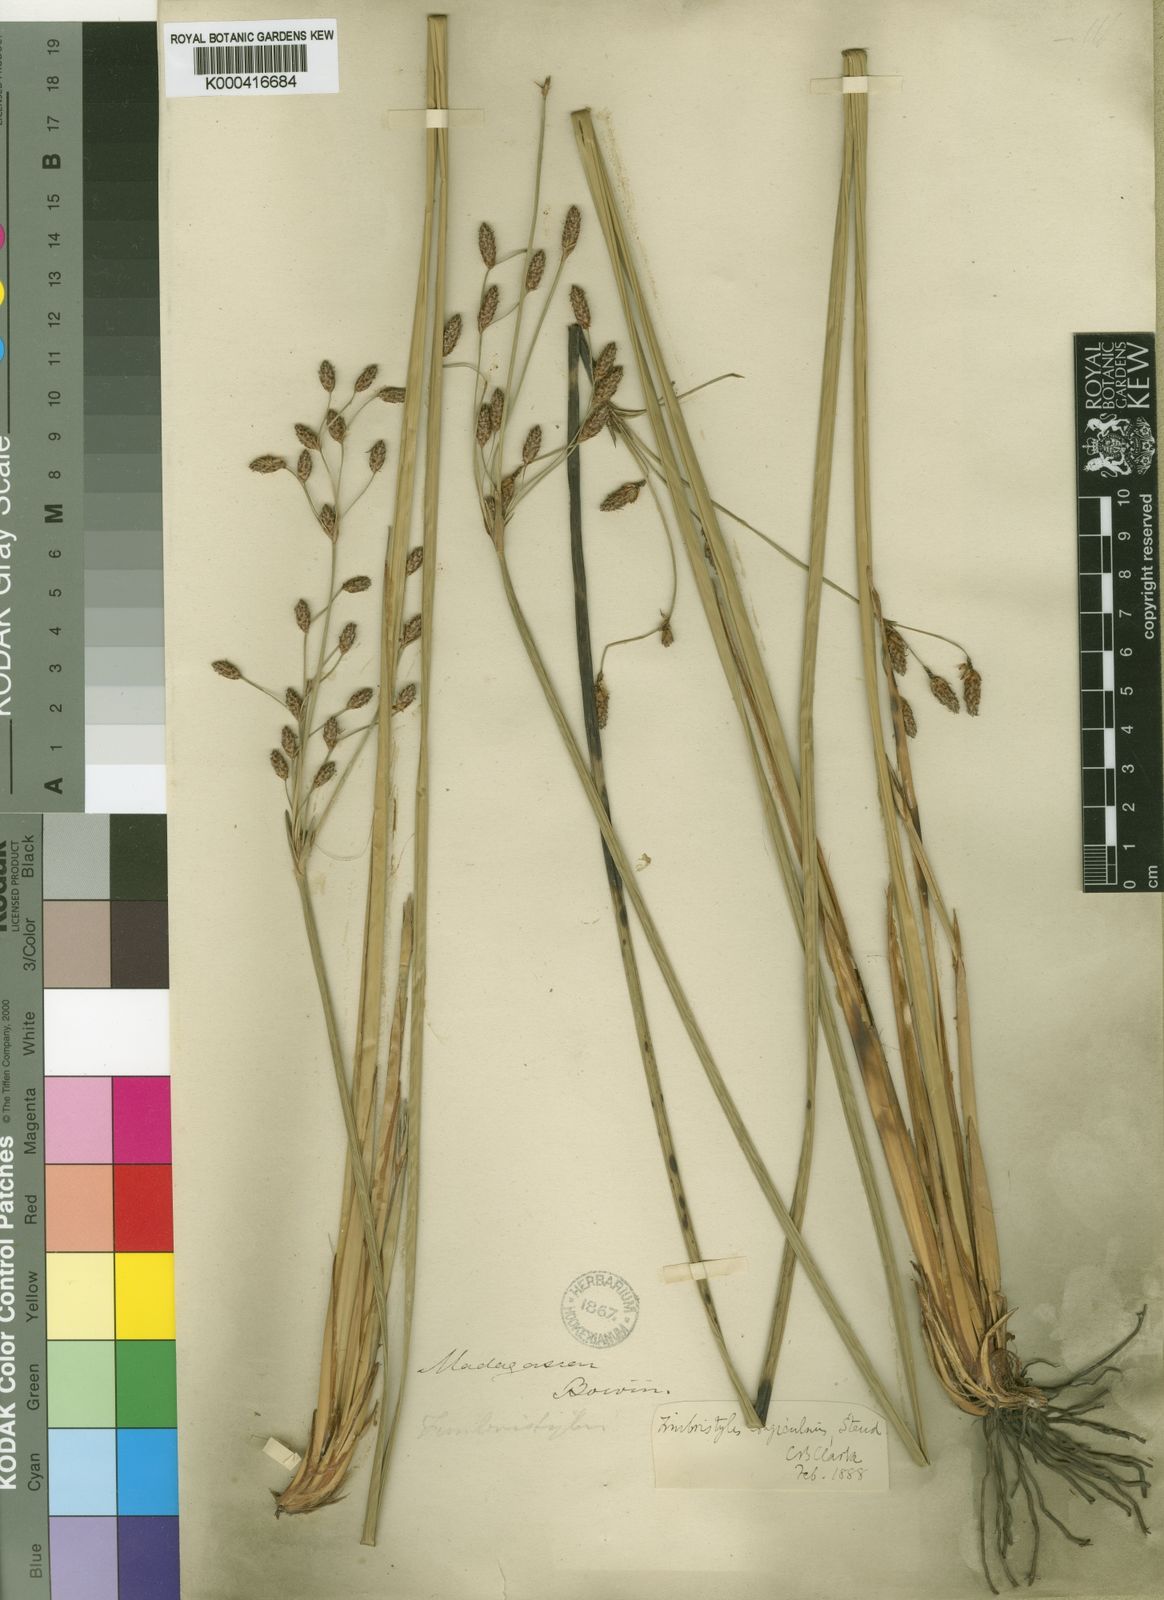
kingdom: Plantae
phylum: Tracheophyta
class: Liliopsida
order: Poales
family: Cyperaceae
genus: Fimbristylis
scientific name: Fimbristylis bivalvis
